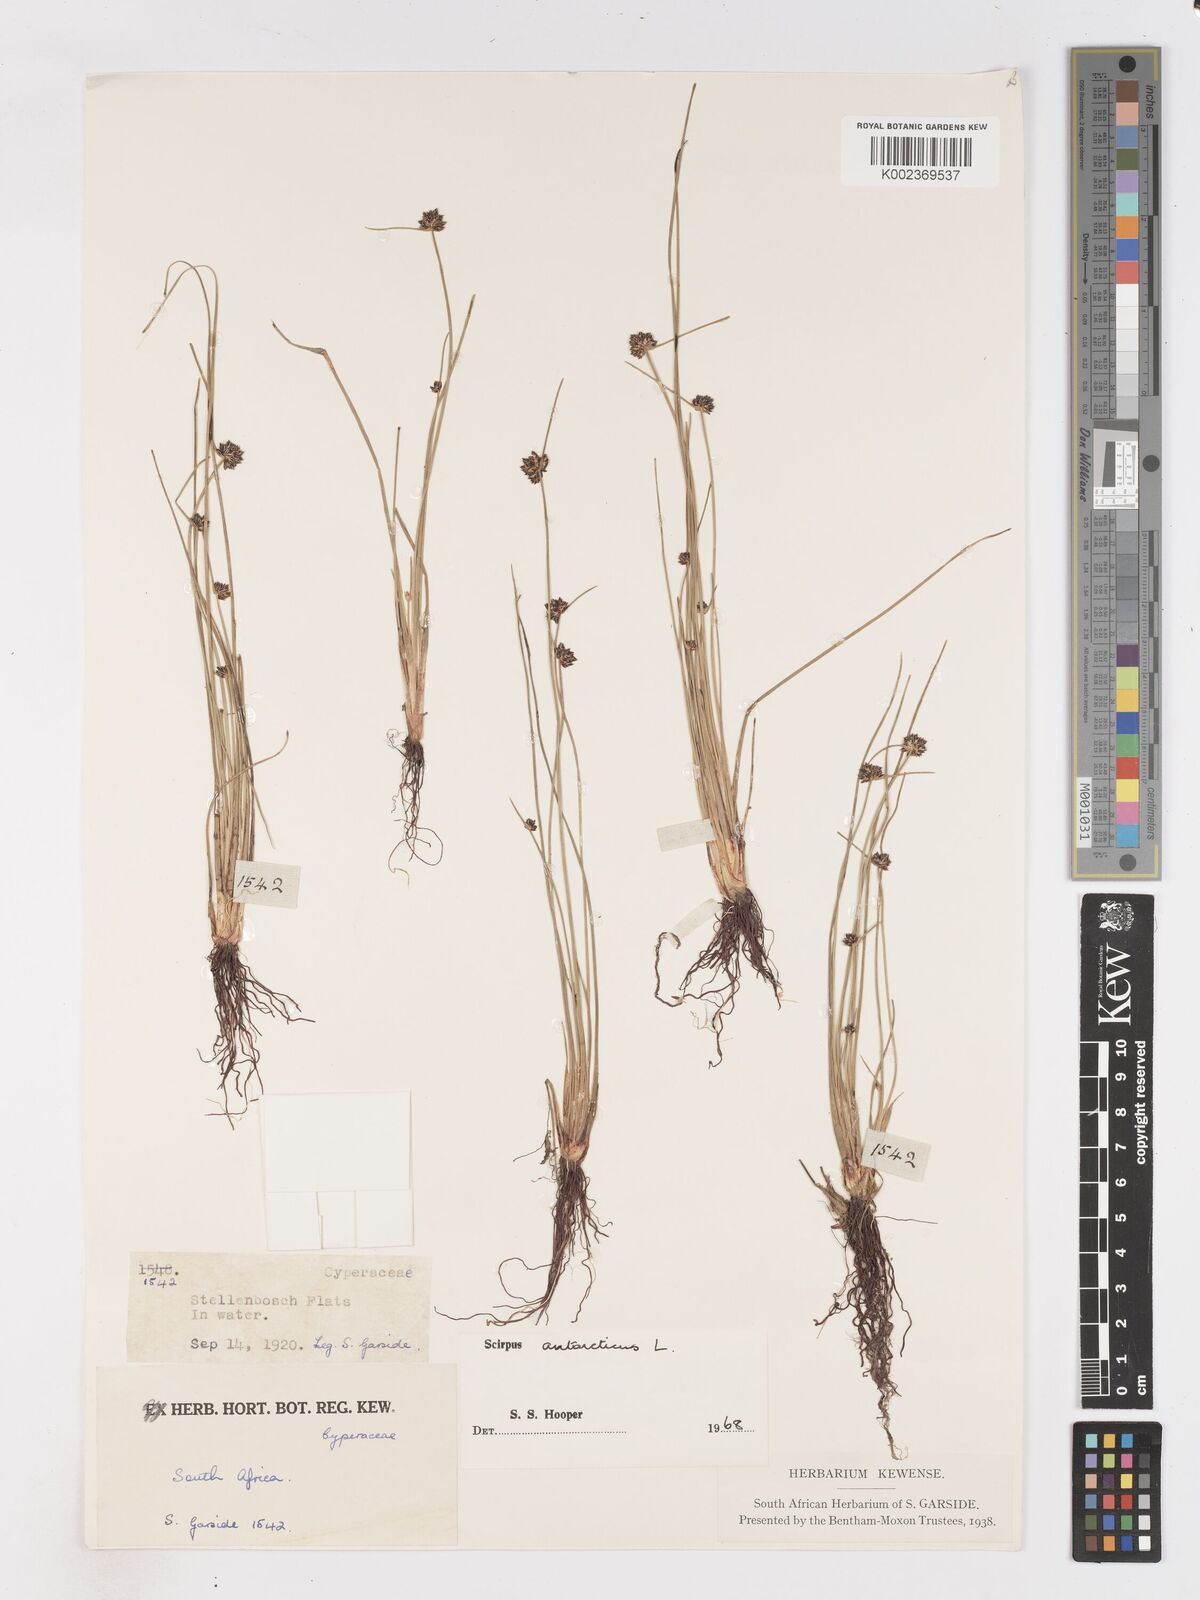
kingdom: Plantae
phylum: Tracheophyta
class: Liliopsida
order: Poales
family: Cyperaceae
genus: Isolepis
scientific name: Isolepis antarctica
